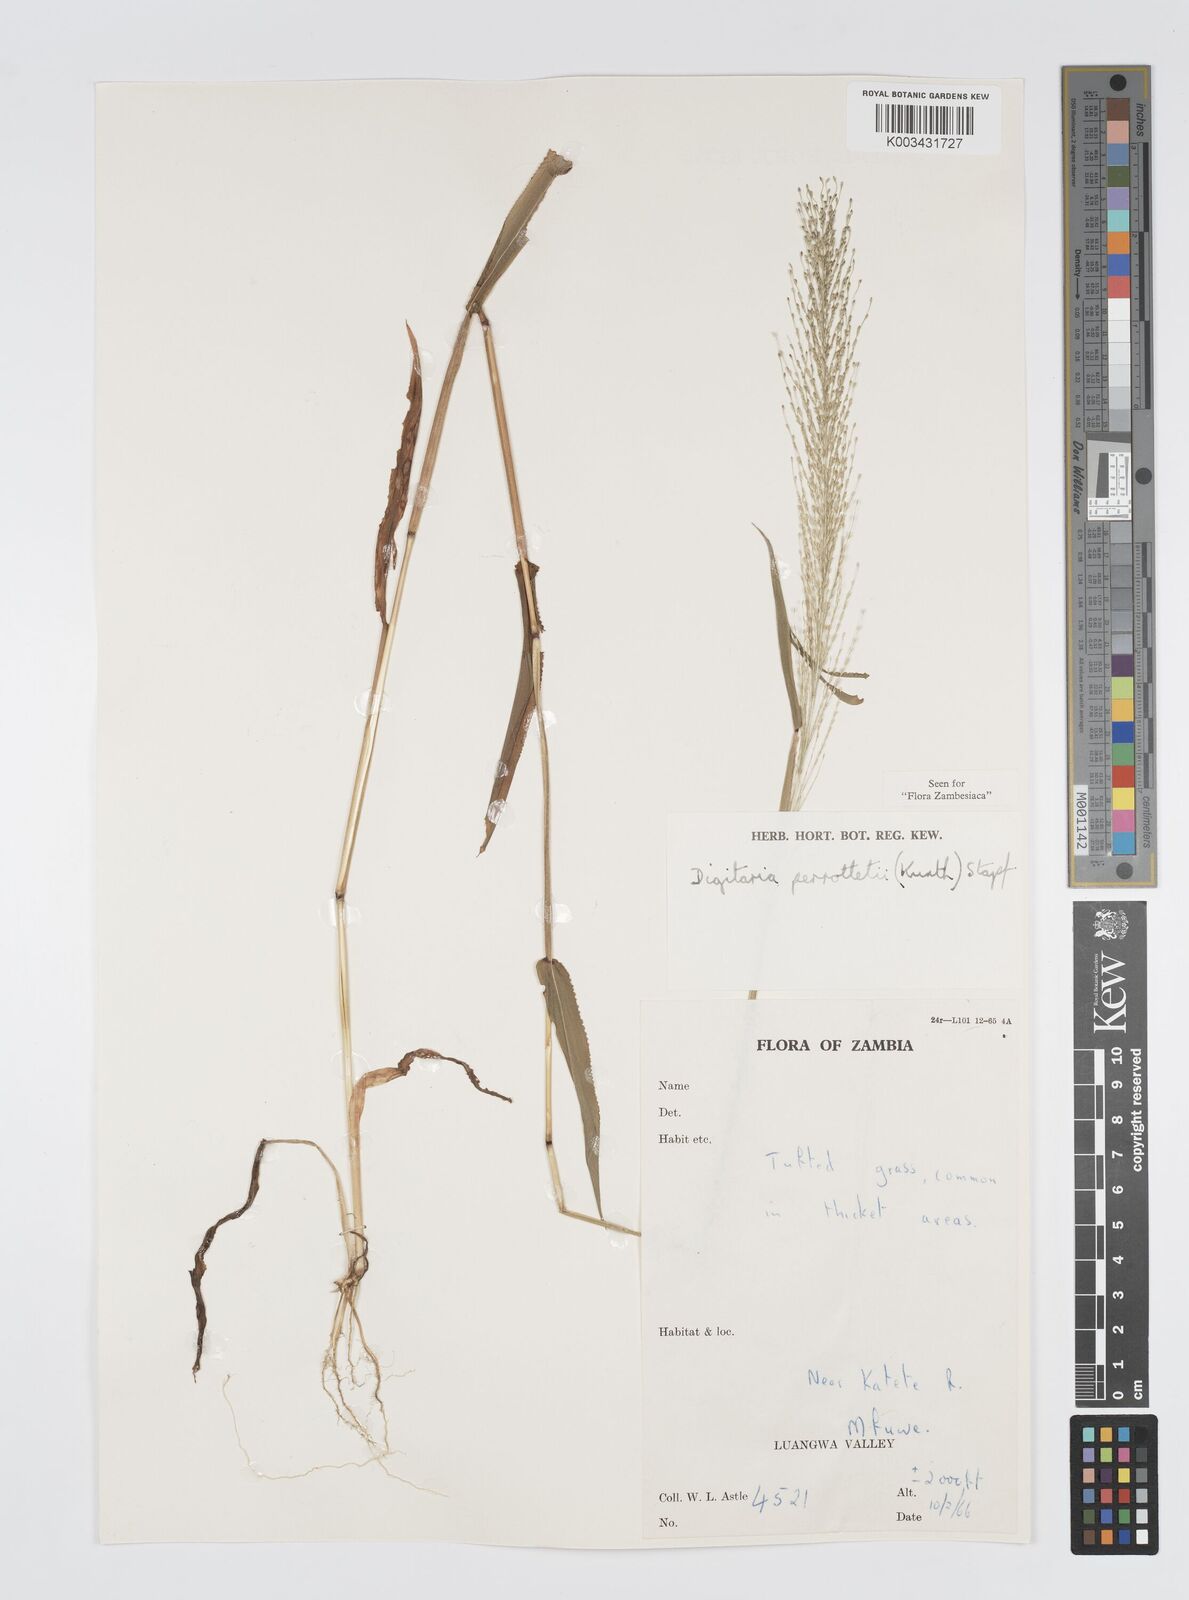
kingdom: Plantae
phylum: Tracheophyta
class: Liliopsida
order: Poales
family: Poaceae
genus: Digitaria
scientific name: Digitaria perrottetii
